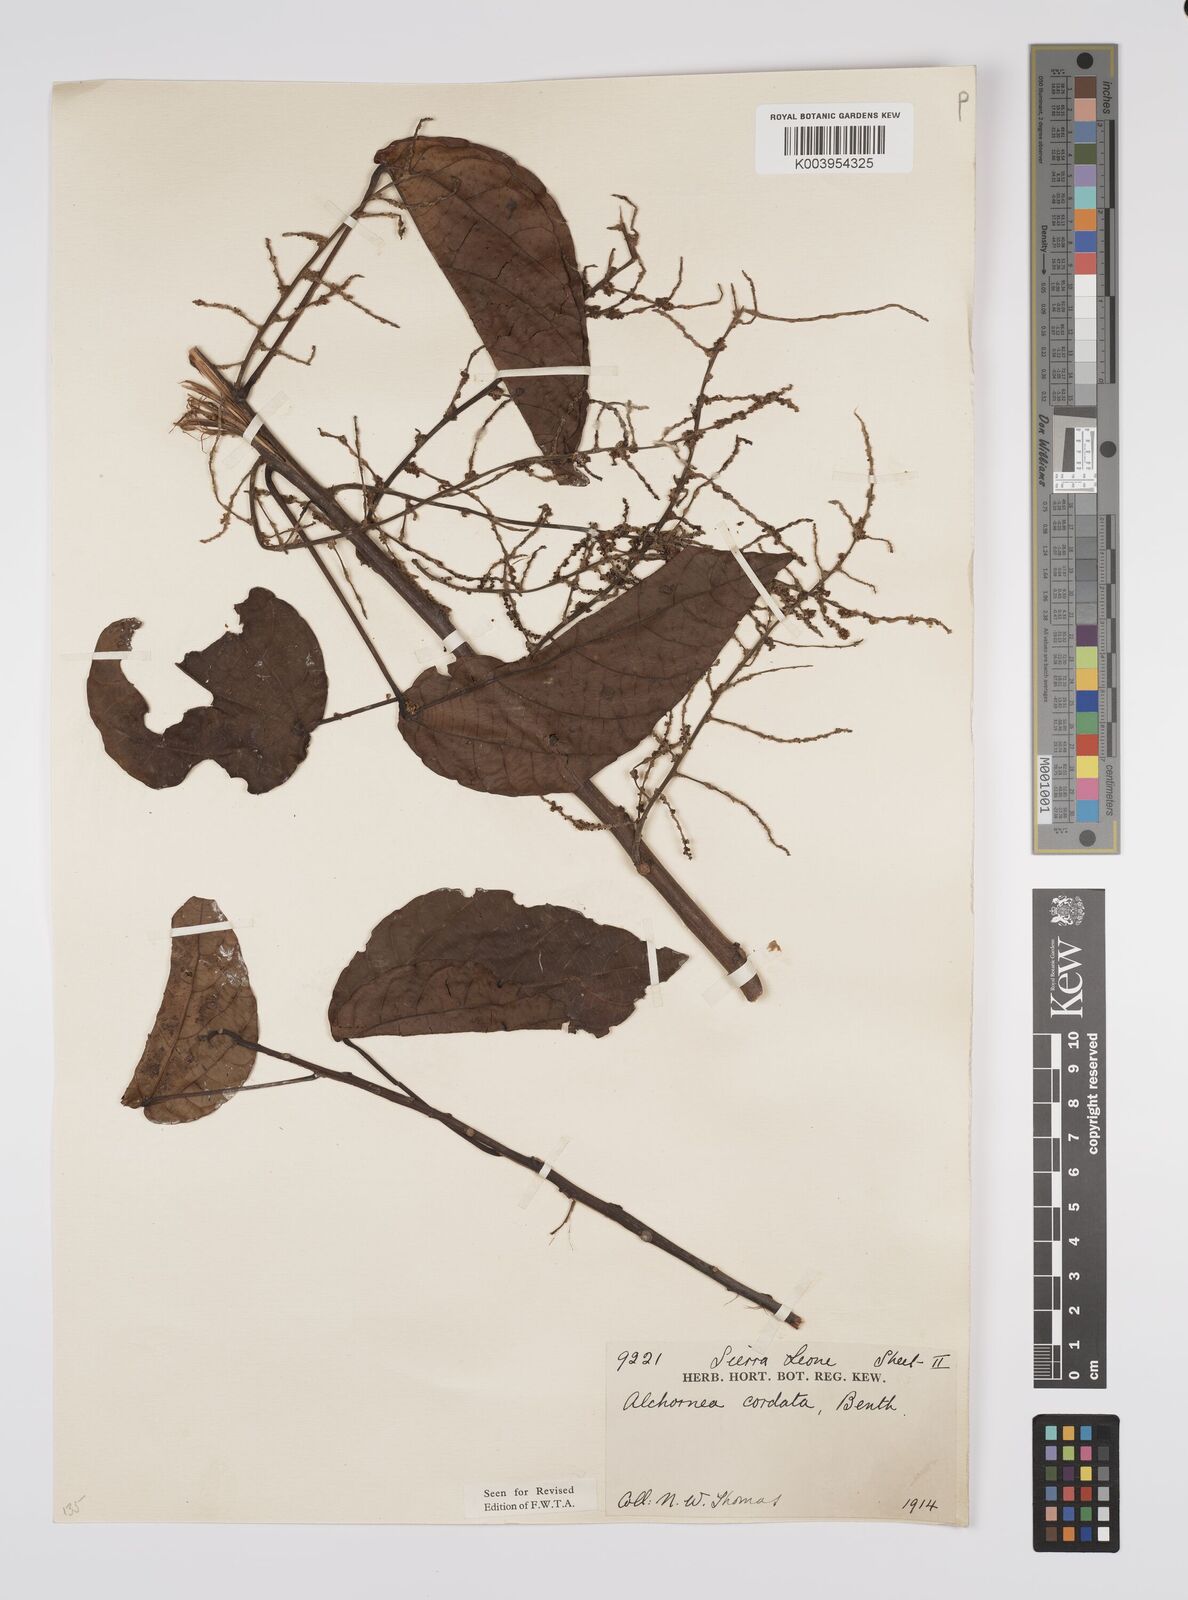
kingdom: Plantae
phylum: Tracheophyta
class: Magnoliopsida
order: Malpighiales
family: Euphorbiaceae
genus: Alchornea
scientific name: Alchornea cordifolia
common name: Christmasbush
